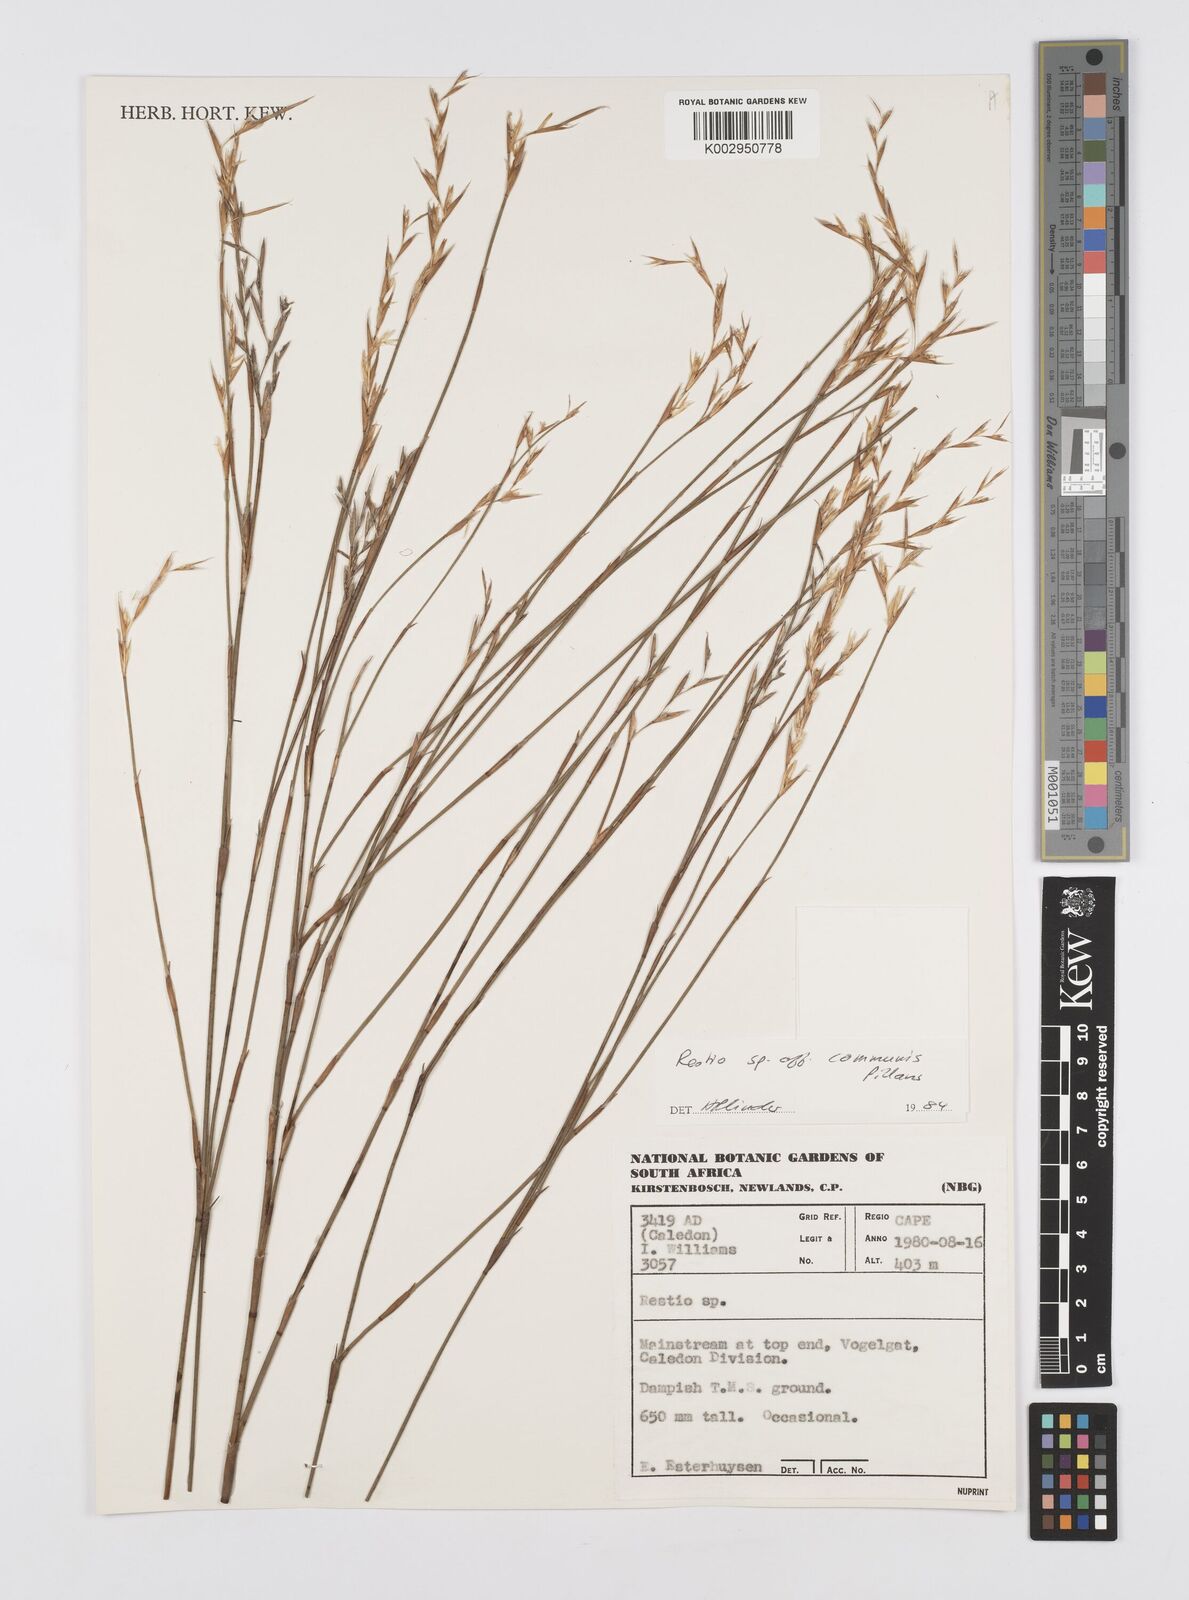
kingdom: Plantae
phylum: Tracheophyta
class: Liliopsida
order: Poales
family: Restionaceae
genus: Restio
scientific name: Restio communis
